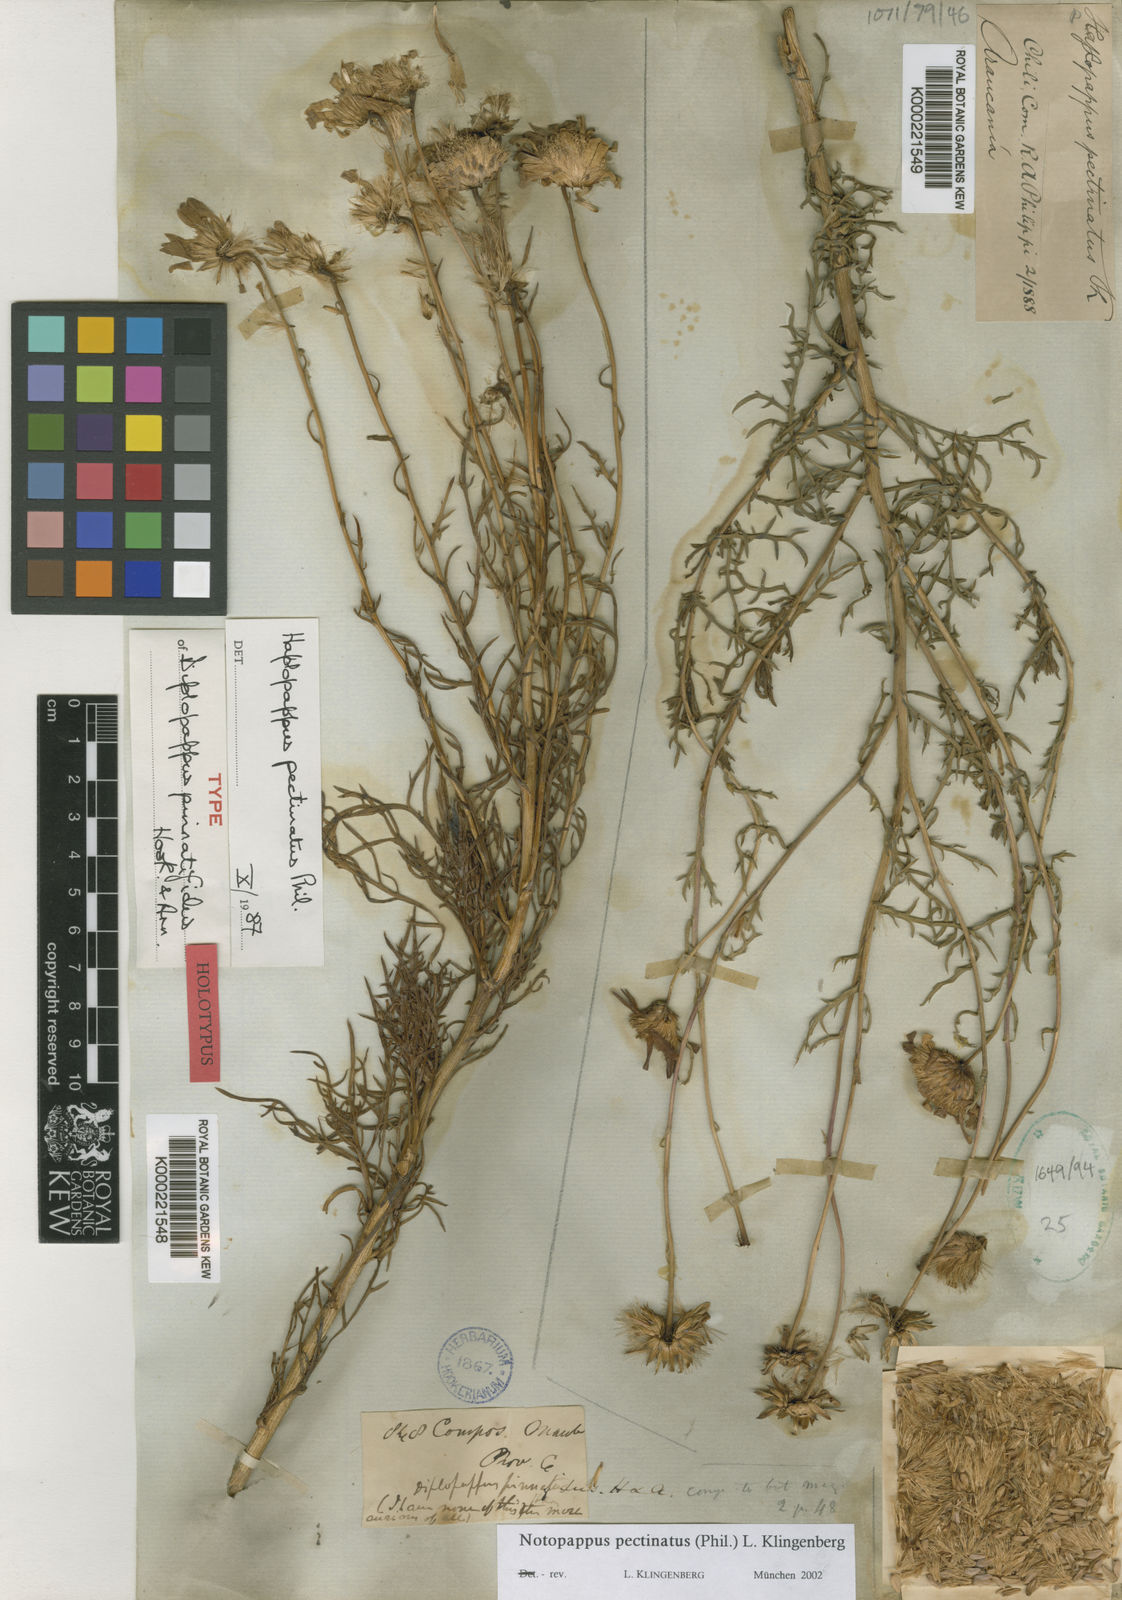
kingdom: Plantae
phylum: Tracheophyta
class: Magnoliopsida
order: Asterales
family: Asteraceae
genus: Grindelia
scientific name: Grindelia anethifolia
